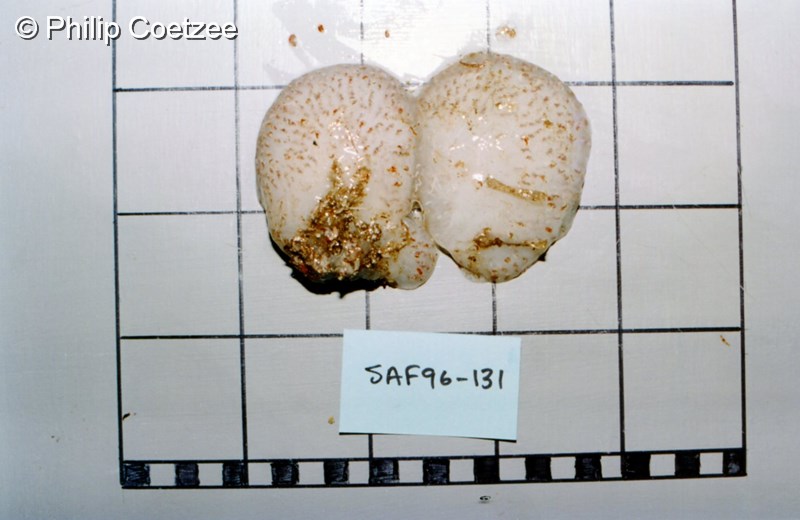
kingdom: Animalia
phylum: Chordata
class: Ascidiacea
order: Aplousobranchia
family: Pseudodistomidae
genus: Pseudodistoma
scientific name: Pseudodistoma
